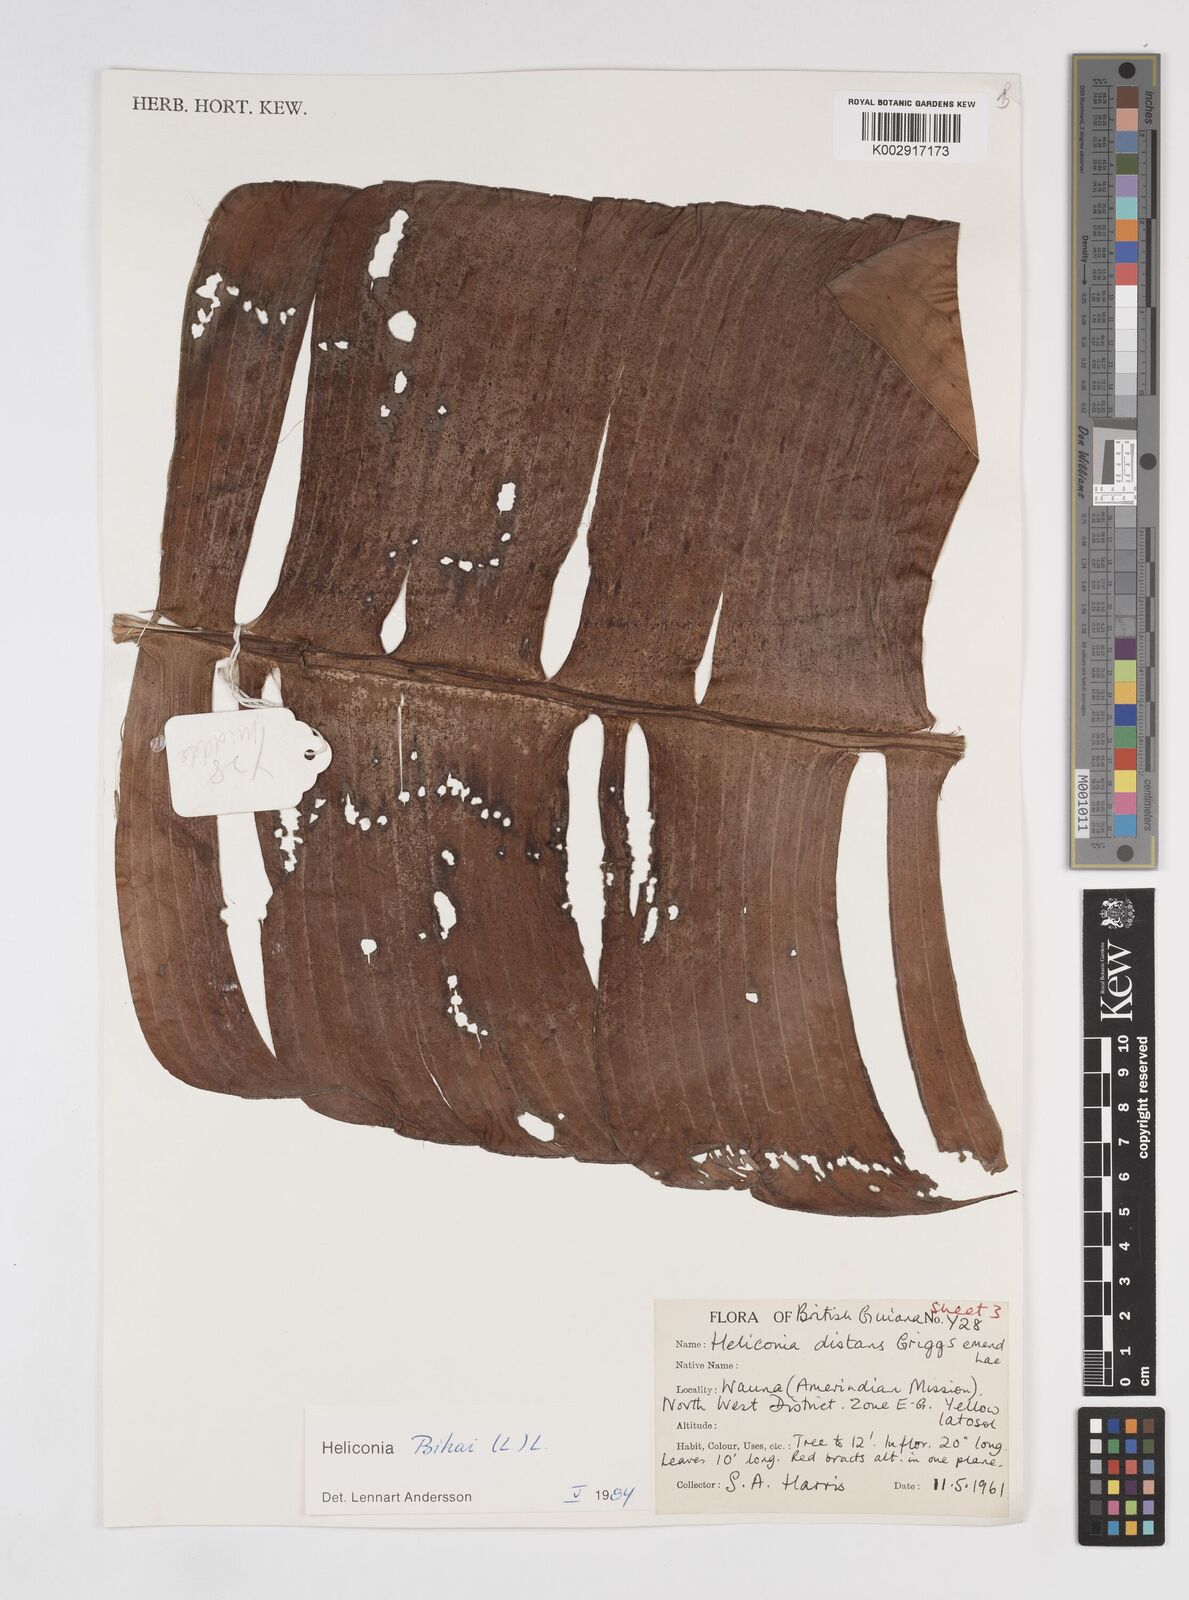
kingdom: Plantae
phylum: Tracheophyta
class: Liliopsida
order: Zingiberales
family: Heliconiaceae
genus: Heliconia
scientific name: Heliconia bihai
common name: Macaw flower
